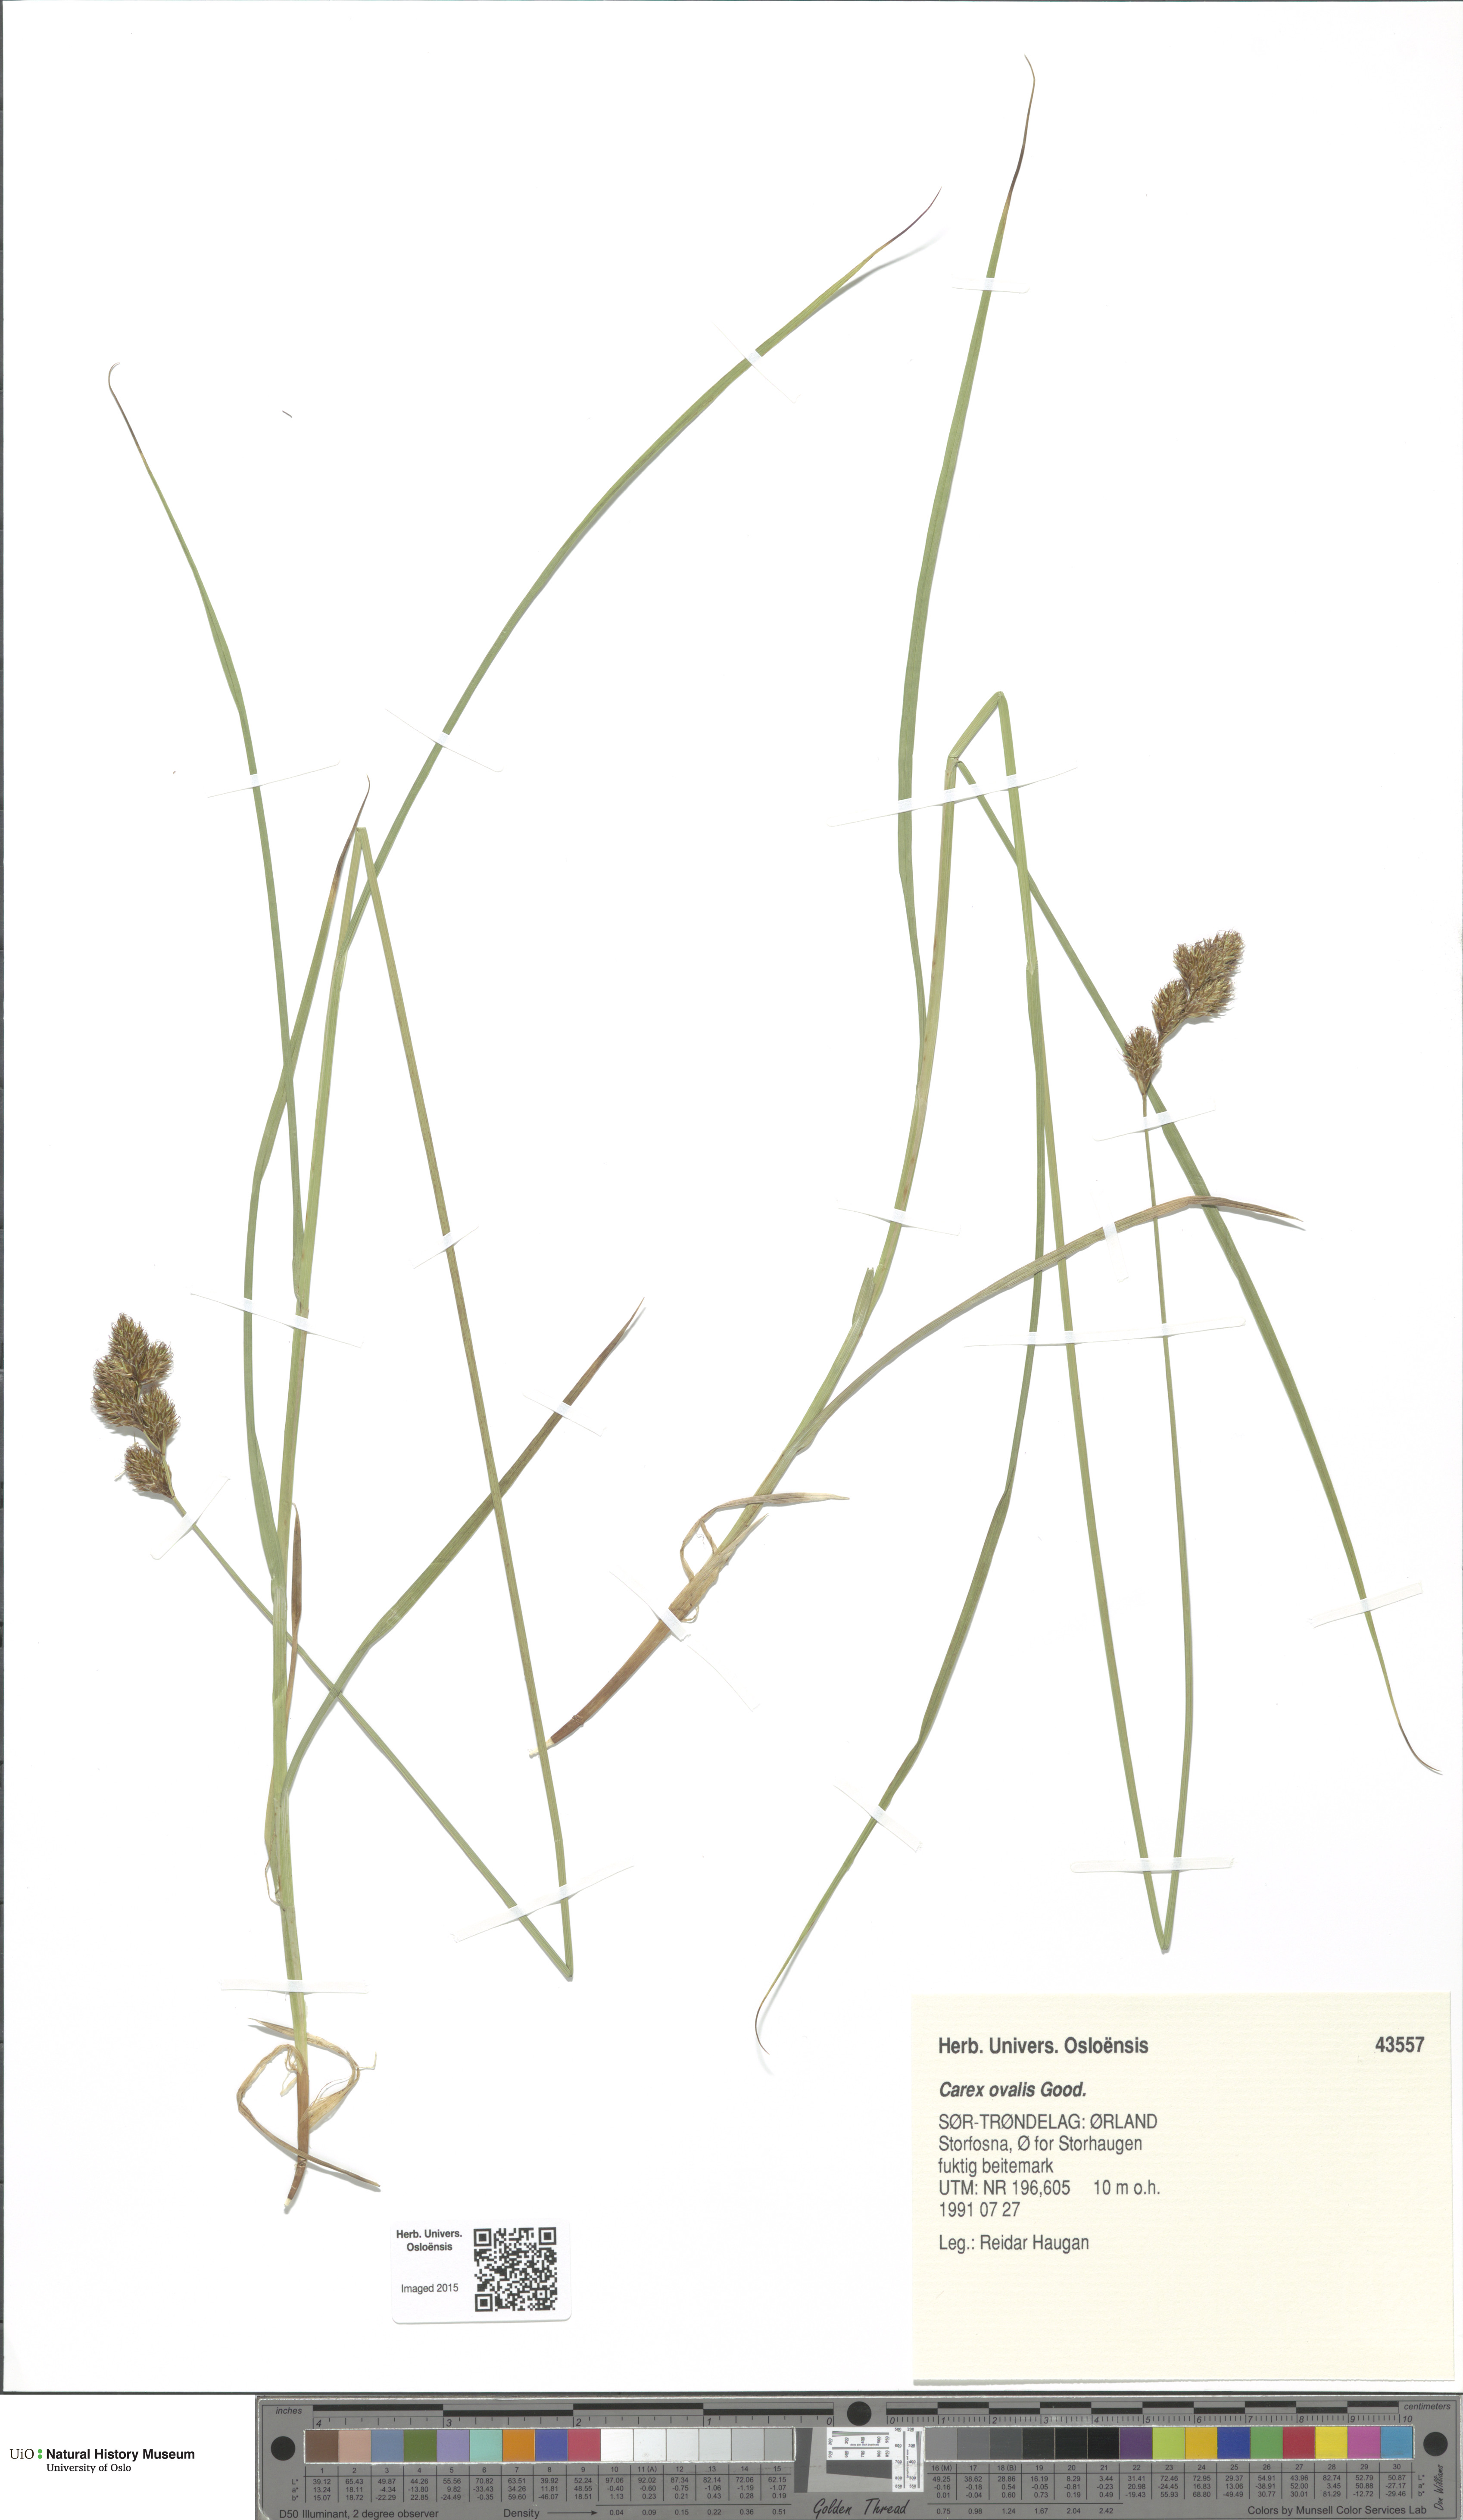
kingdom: Plantae
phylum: Tracheophyta
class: Liliopsida
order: Poales
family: Cyperaceae
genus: Carex
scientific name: Carex leporina
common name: Oval sedge
